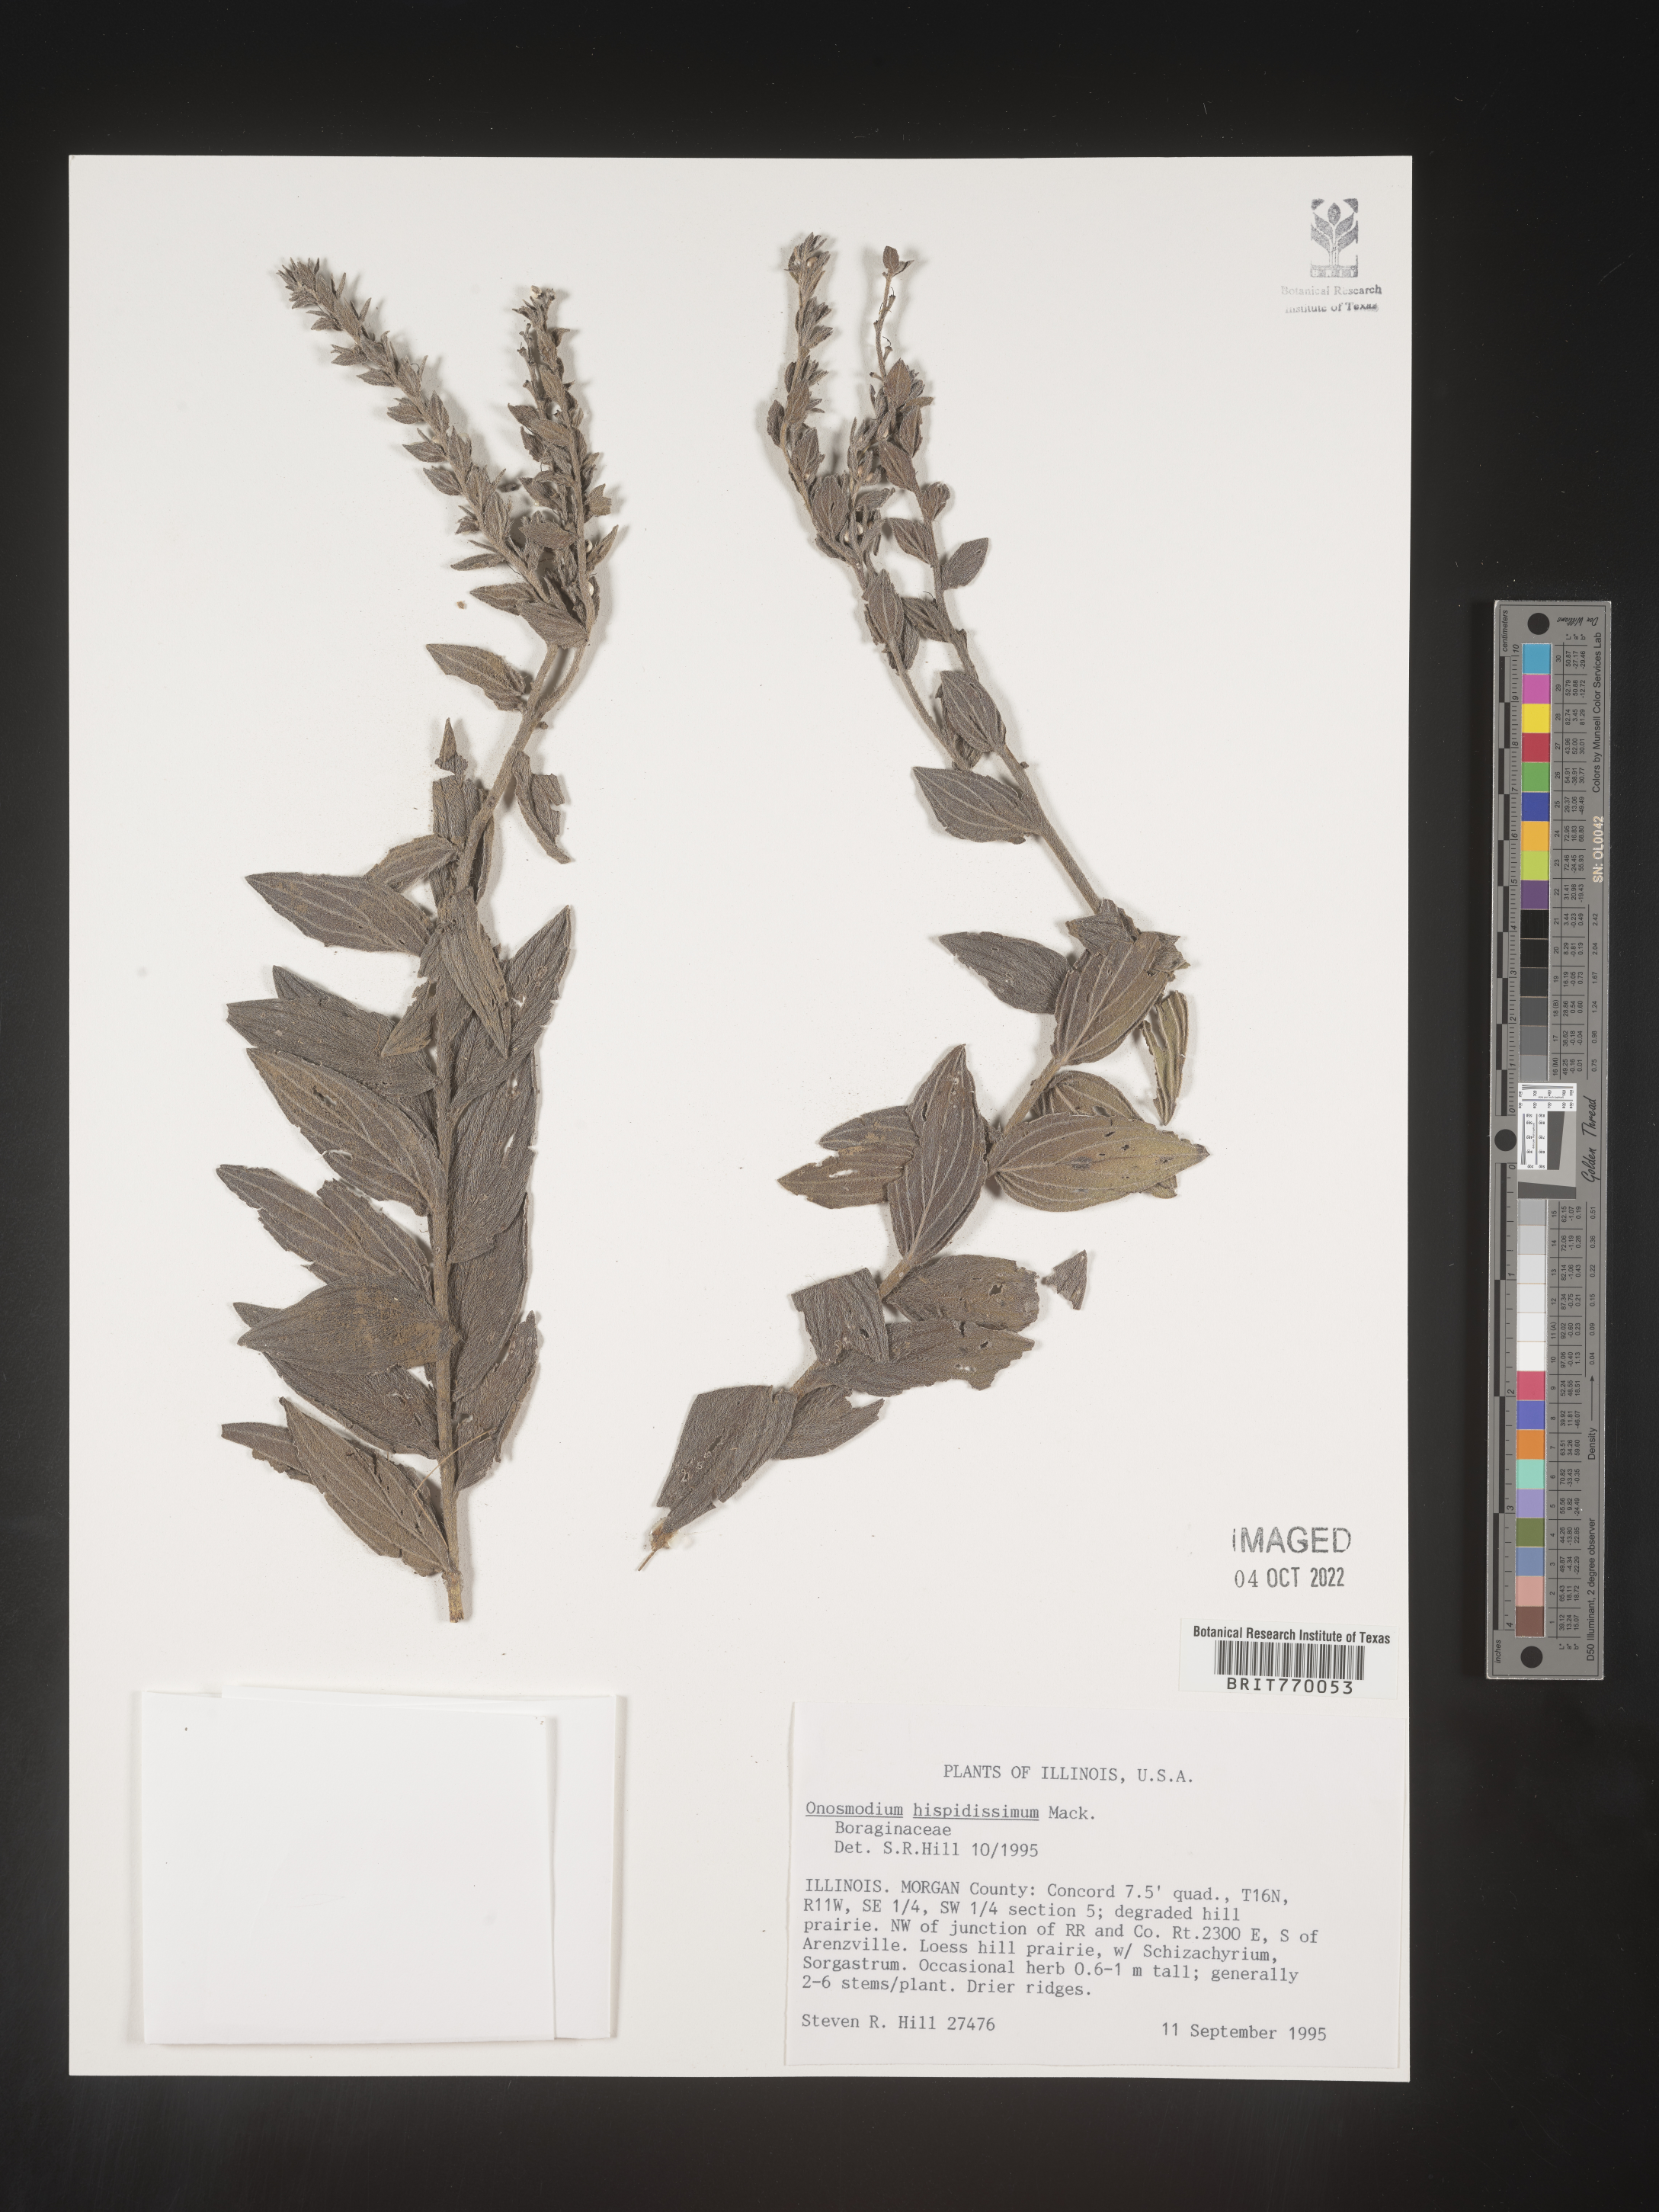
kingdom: Plantae
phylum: Tracheophyta
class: Magnoliopsida
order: Boraginales
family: Boraginaceae
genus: Lithospermum
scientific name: Lithospermum parviflorum
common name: Hairy false gromwell
